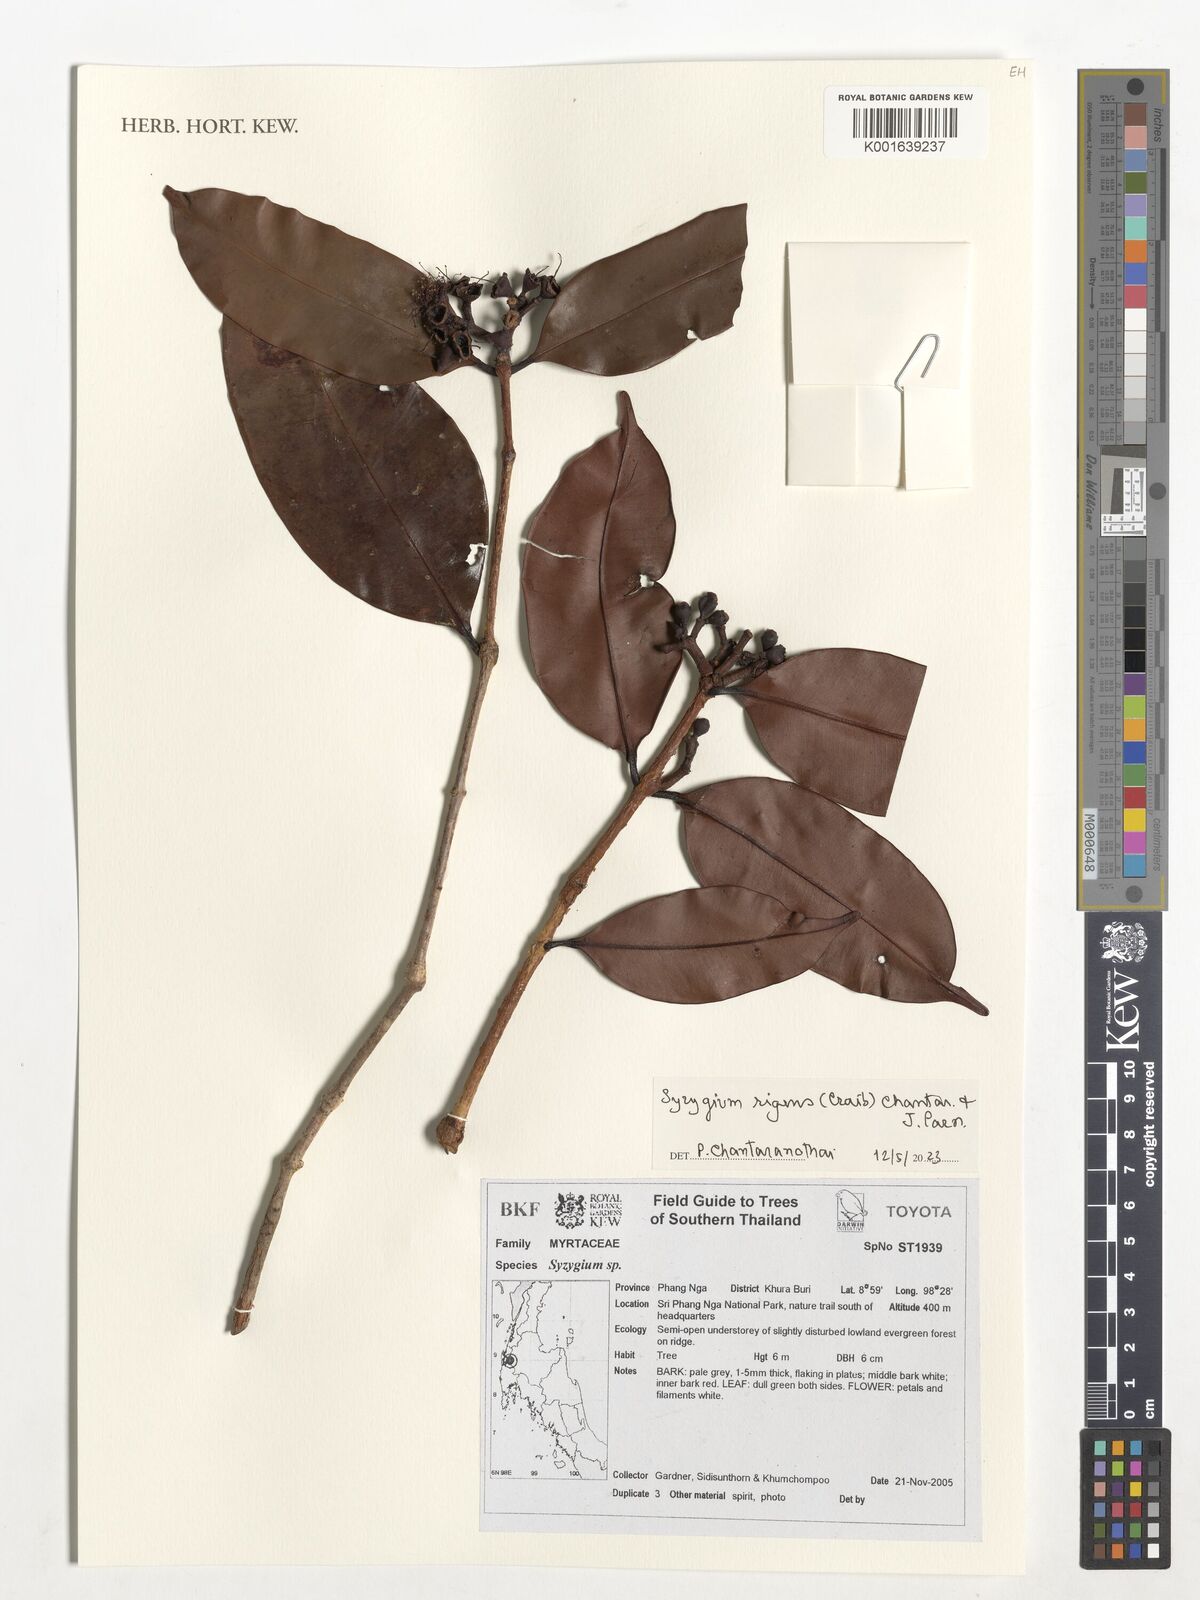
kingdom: Plantae
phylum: Tracheophyta
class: Magnoliopsida
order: Myrtales
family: Myrtaceae
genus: Syzygium
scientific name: Syzygium rigens
